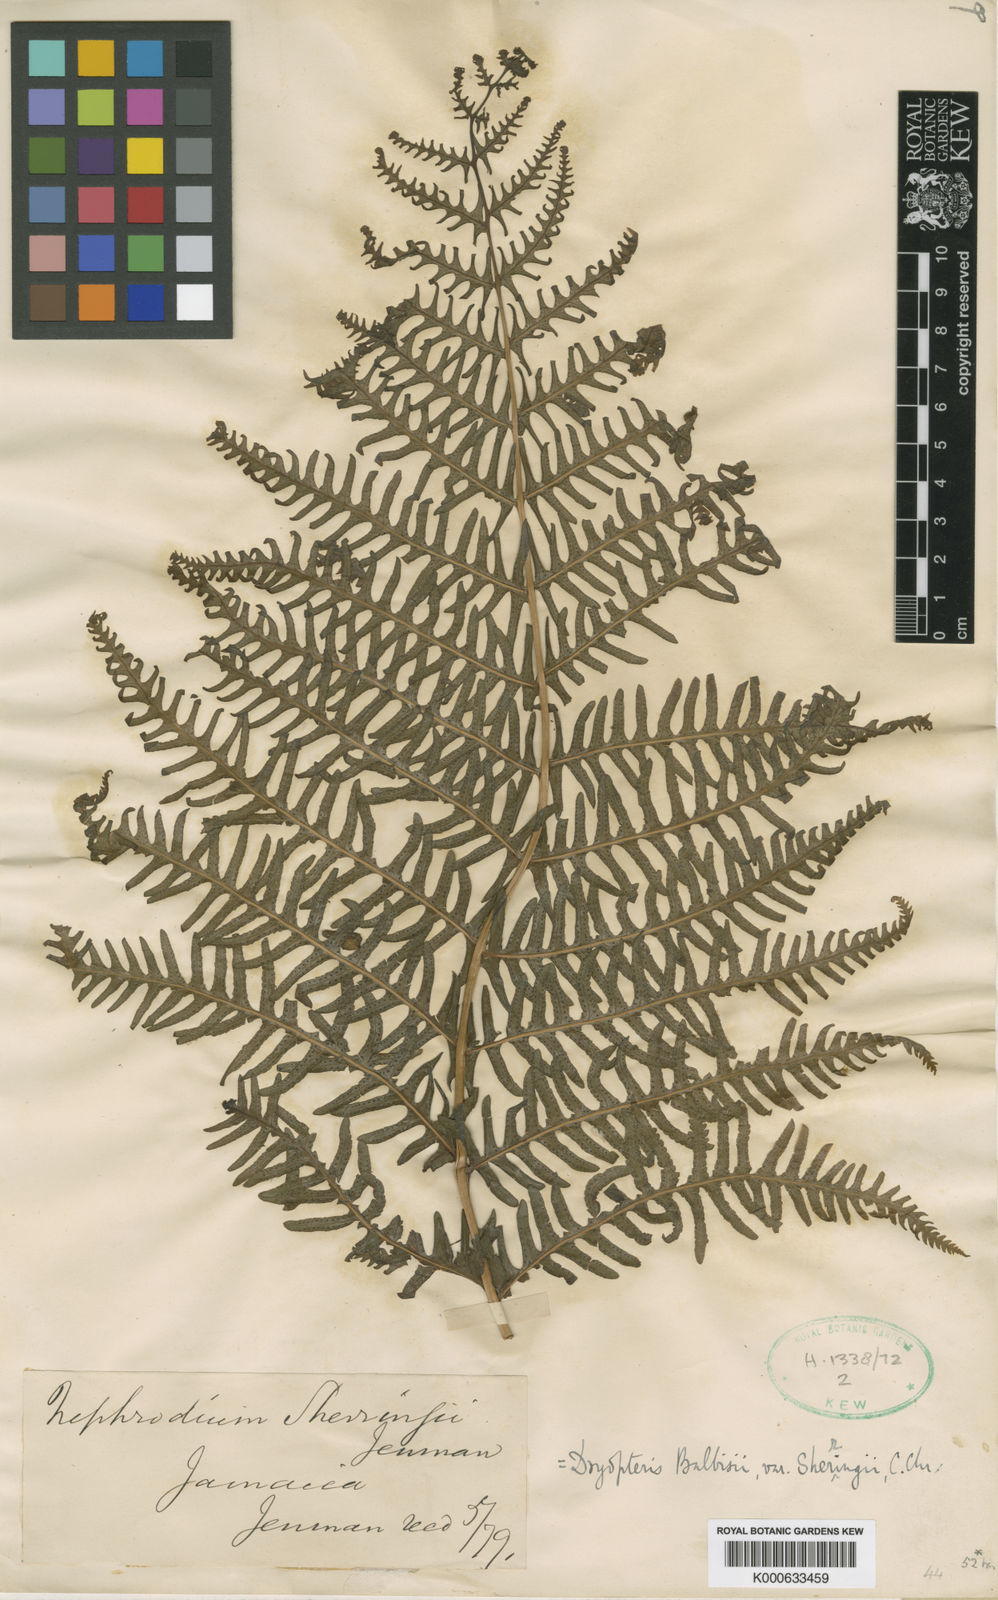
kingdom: Plantae
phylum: Tracheophyta
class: Polypodiopsida
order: Polypodiales
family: Thelypteridaceae
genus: Amauropelta
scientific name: Amauropelta balbisii
